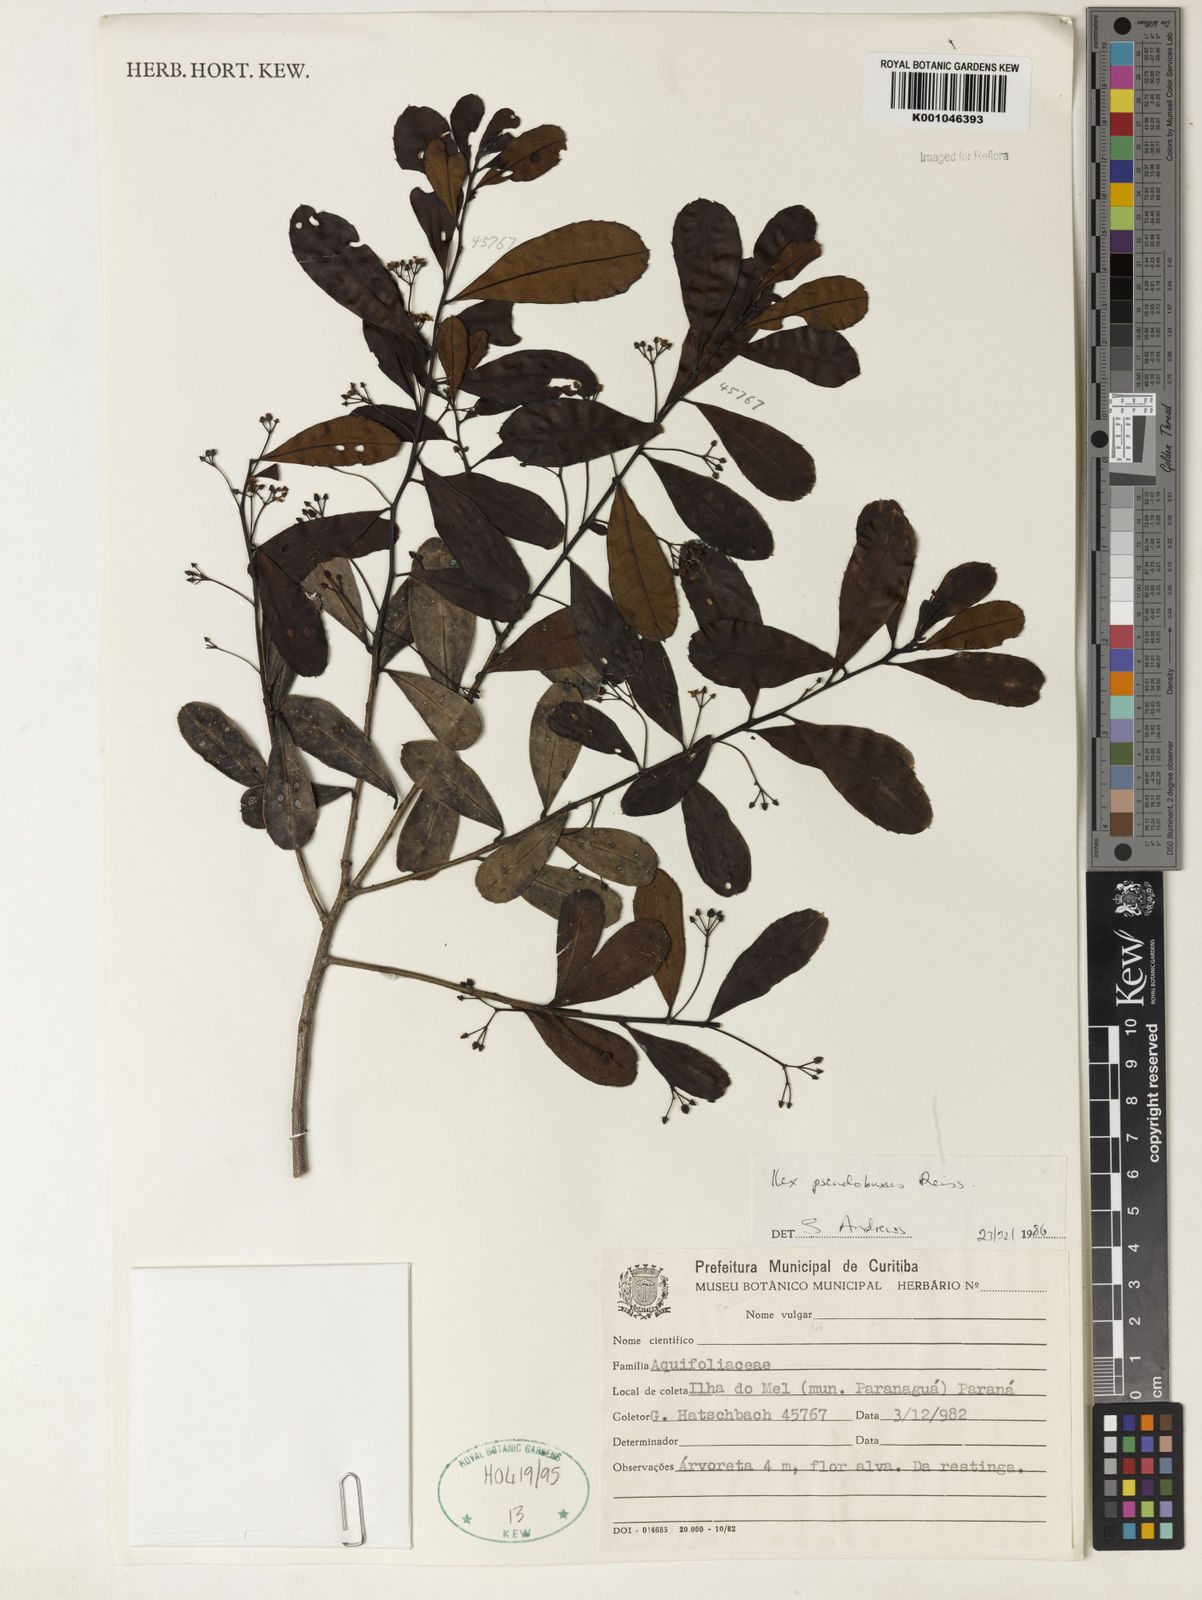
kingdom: Plantae
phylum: Tracheophyta
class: Magnoliopsida
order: Aquifoliales
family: Aquifoliaceae
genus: Ilex
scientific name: Ilex pseudobuxus
